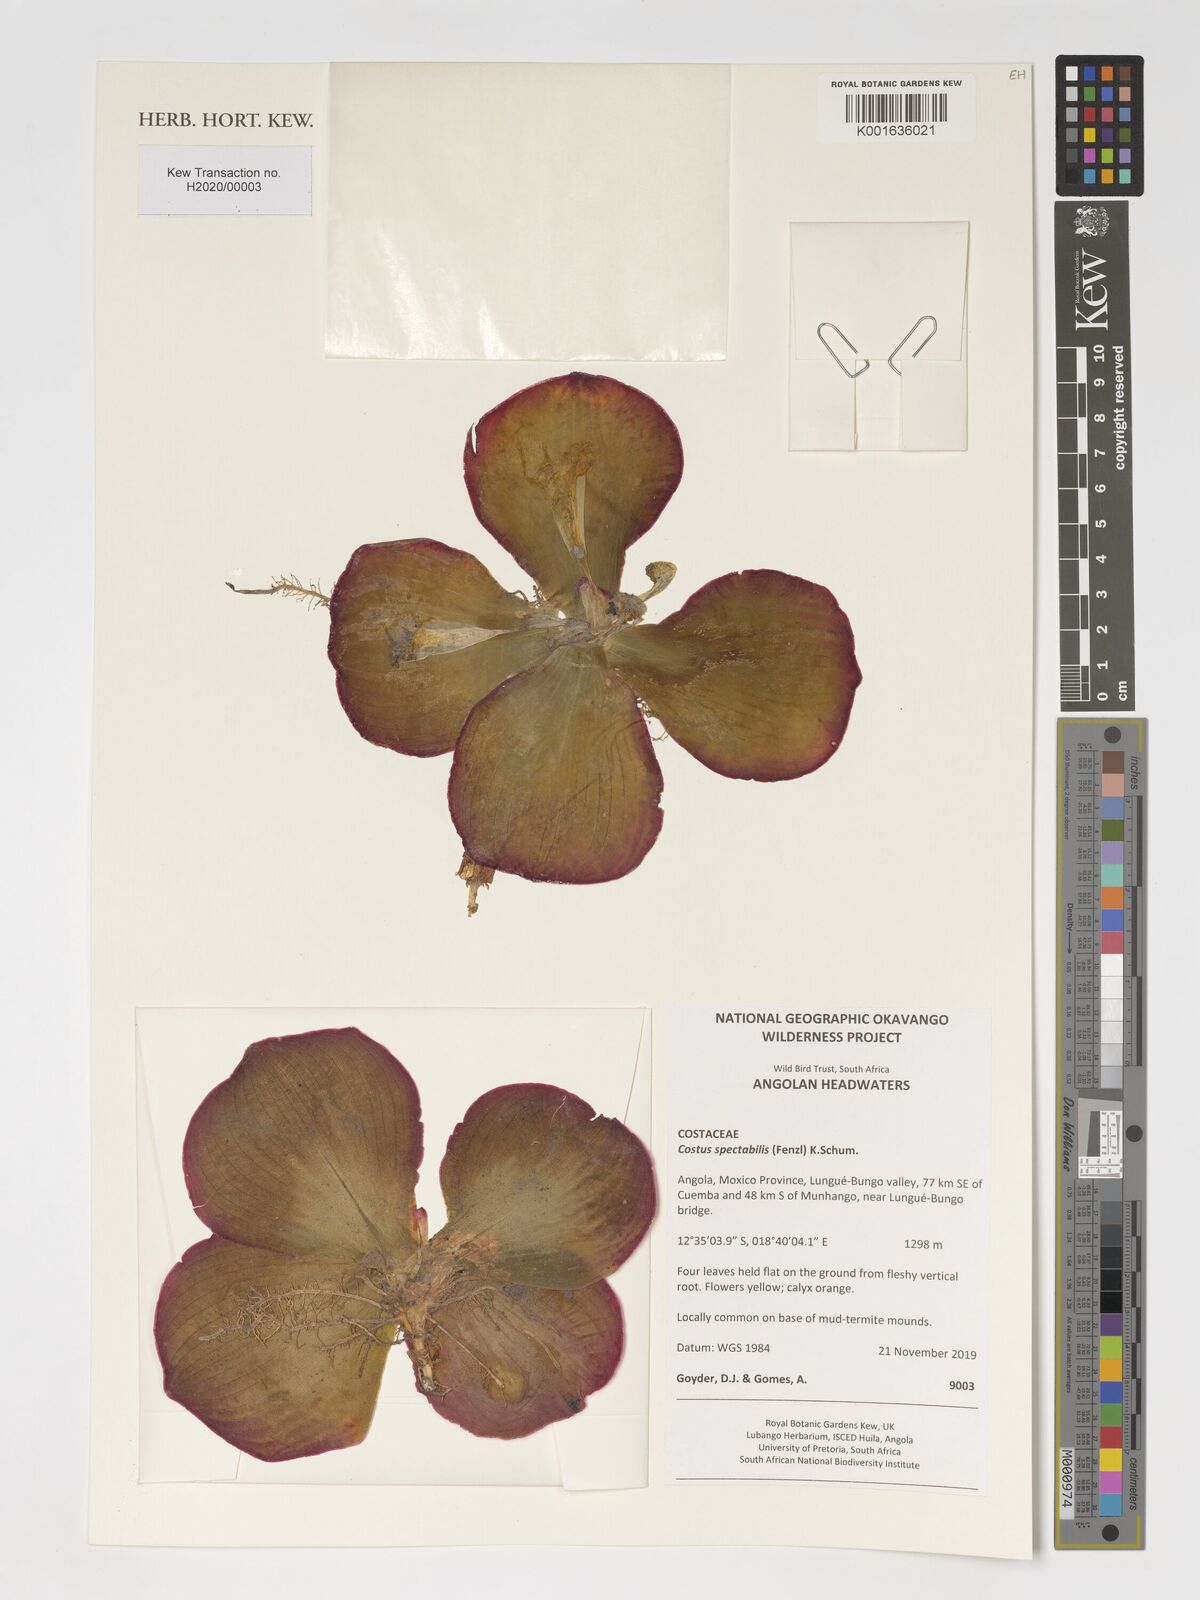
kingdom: Plantae
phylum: Tracheophyta
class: Liliopsida
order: Zingiberales
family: Costaceae
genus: Costus
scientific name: Costus spectabilis
